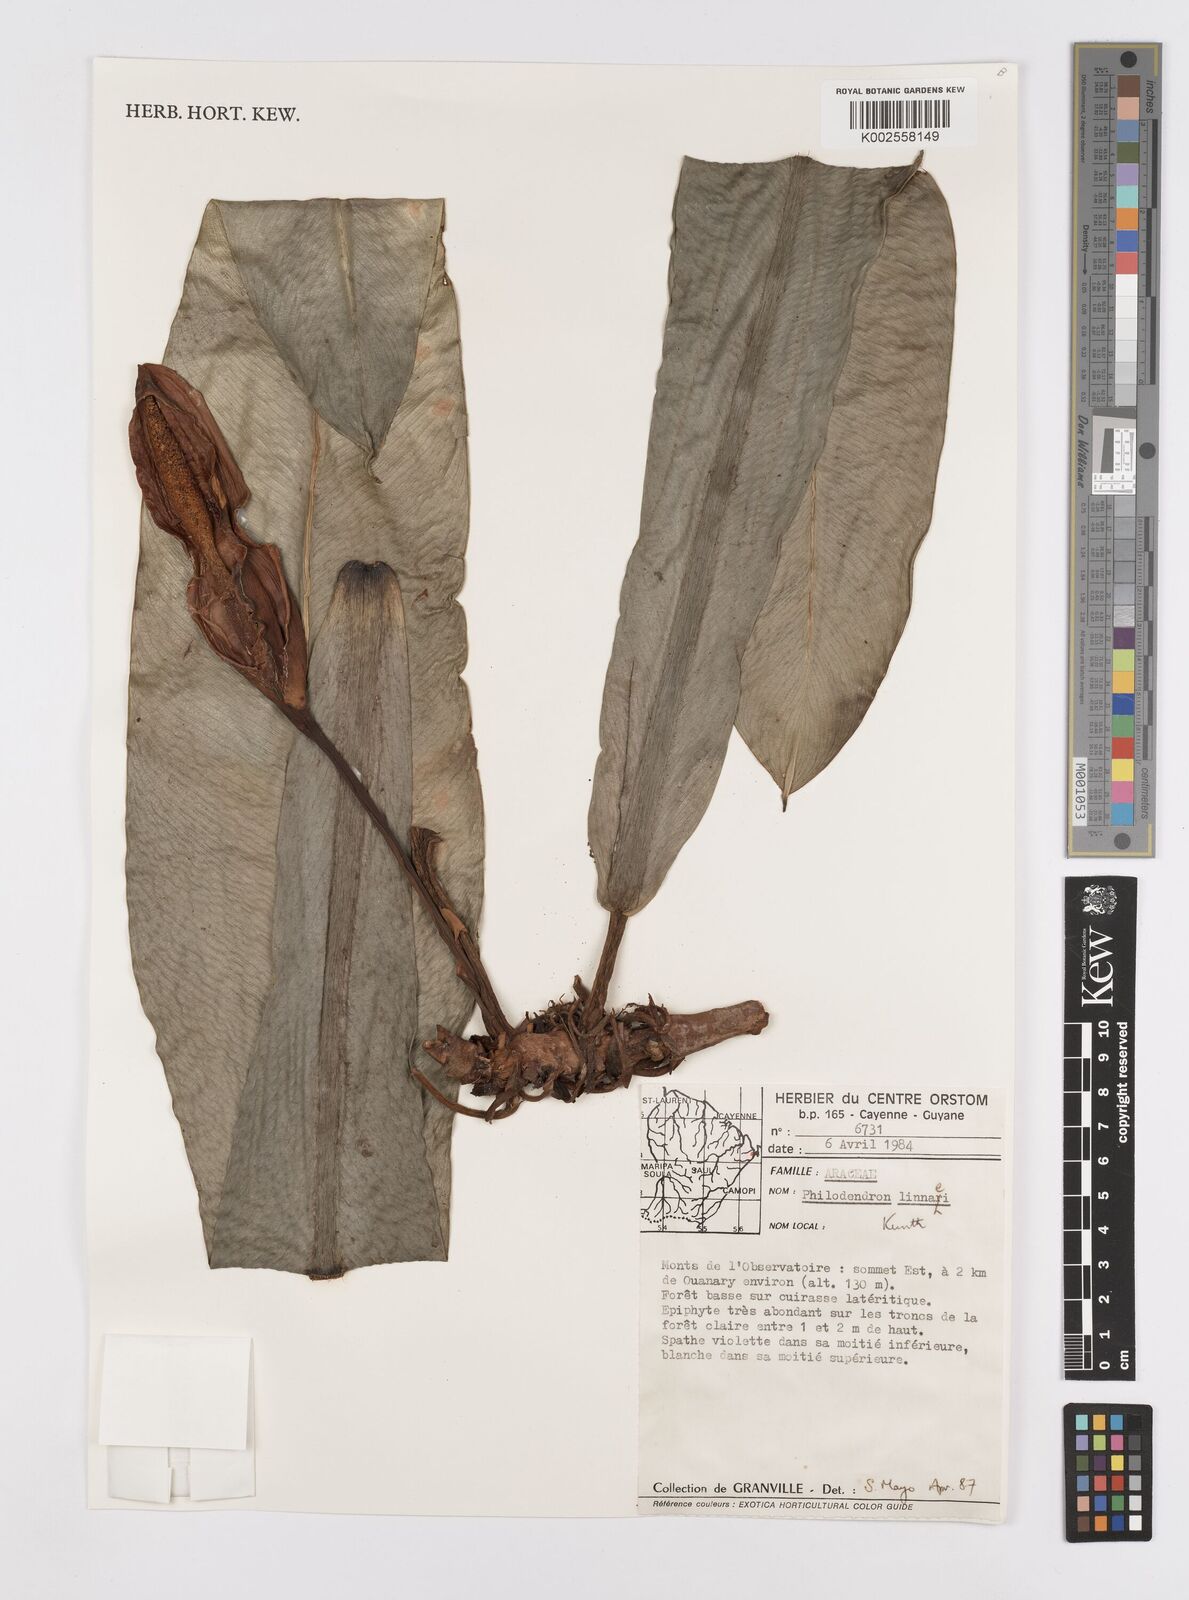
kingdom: Plantae
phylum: Tracheophyta
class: Liliopsida
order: Alismatales
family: Araceae
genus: Philodendron
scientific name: Philodendron linnaei
